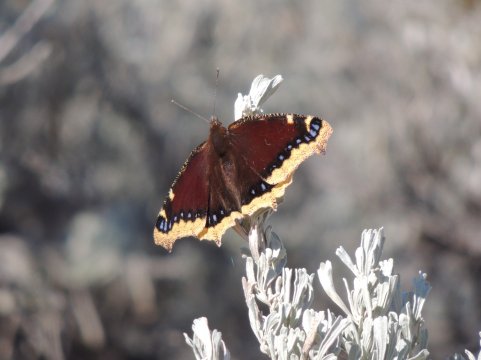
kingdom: Animalia
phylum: Arthropoda
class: Insecta
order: Lepidoptera
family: Nymphalidae
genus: Nymphalis
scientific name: Nymphalis antiopa
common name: Mourning Cloak
